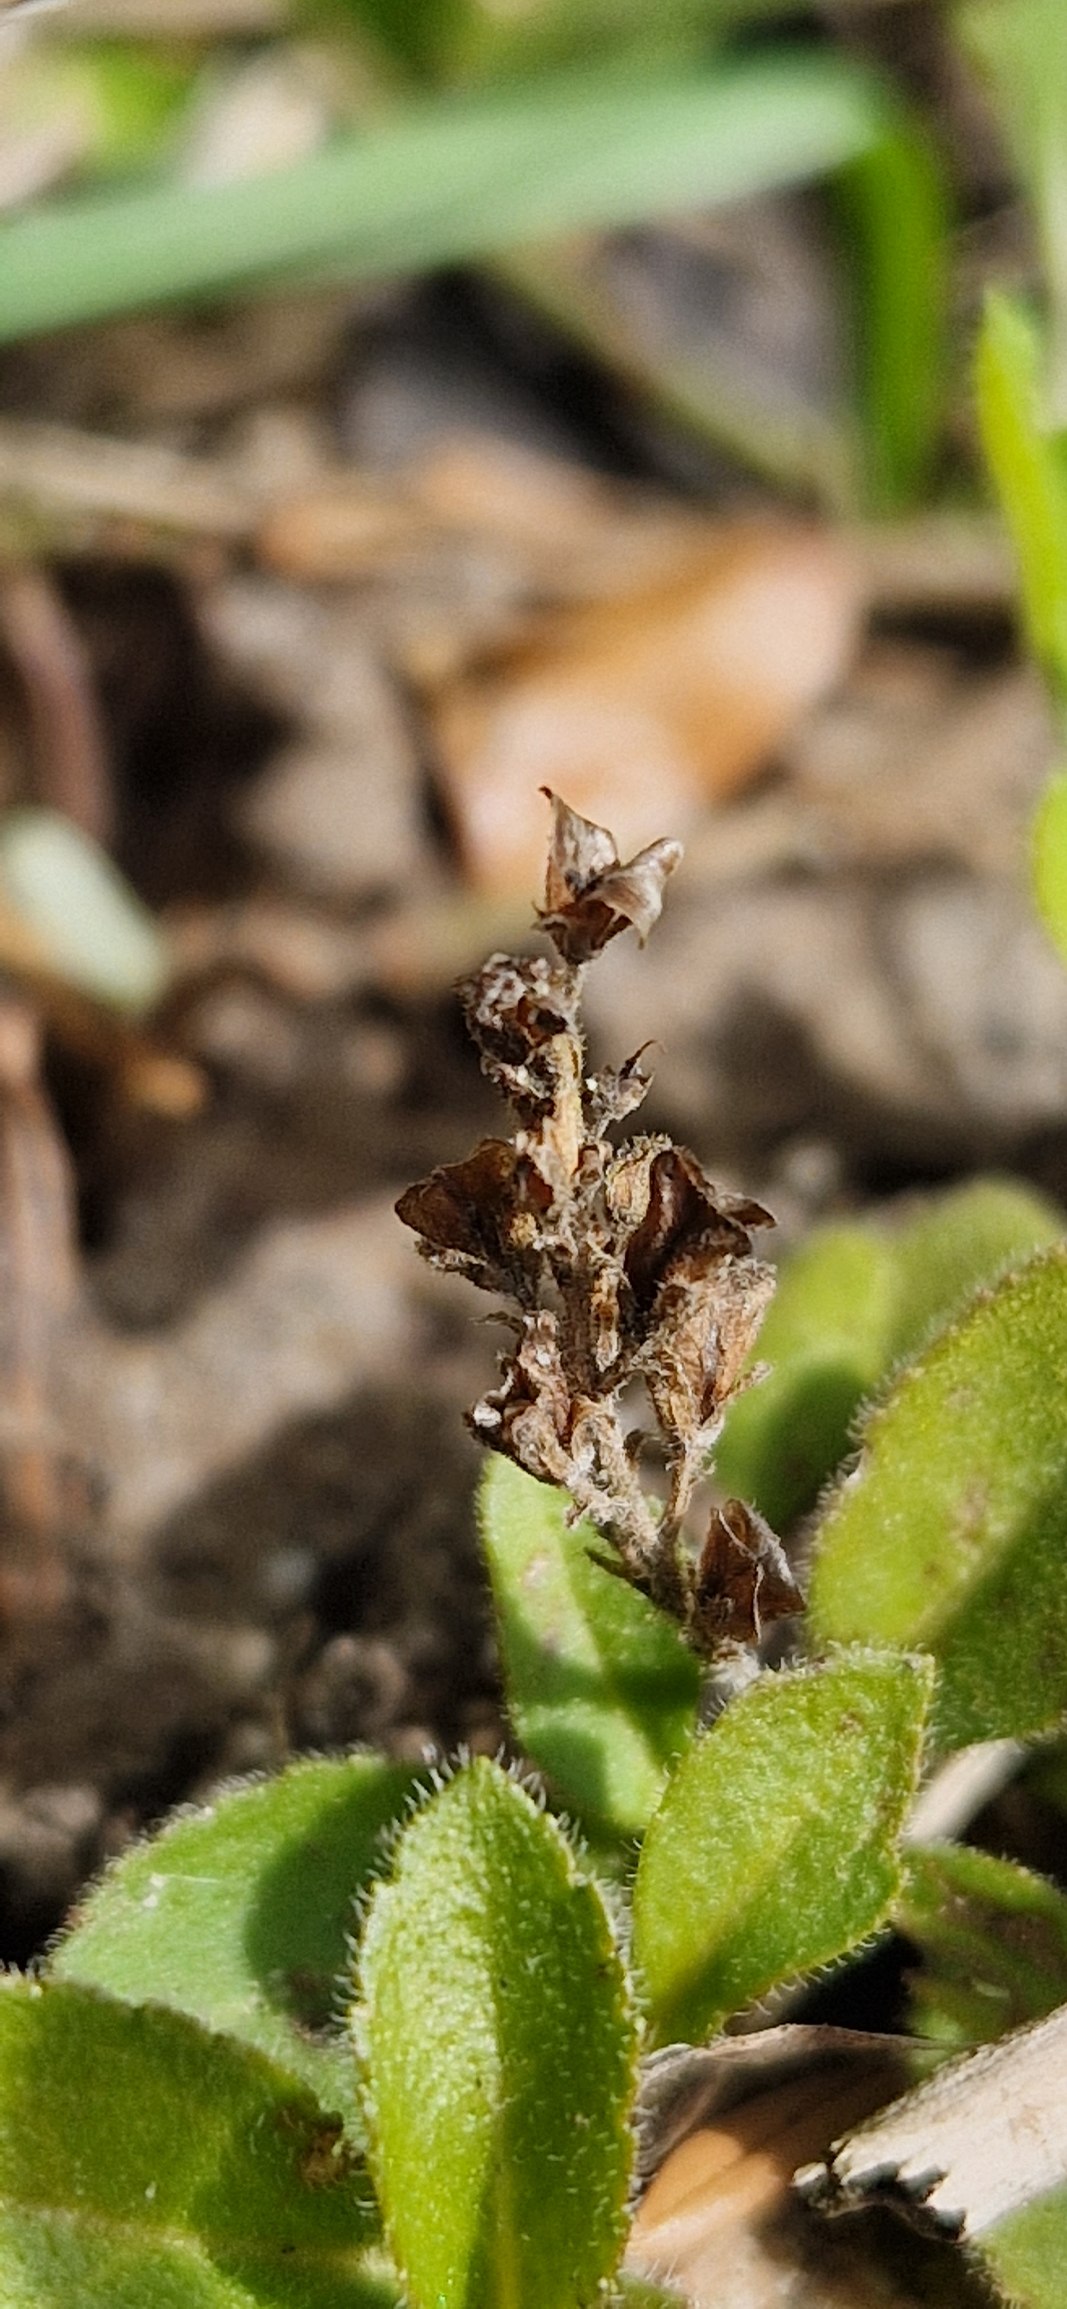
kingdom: Plantae
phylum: Tracheophyta
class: Magnoliopsida
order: Lamiales
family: Plantaginaceae
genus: Veronica
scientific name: Veronica officinalis
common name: Læge-ærenpris
